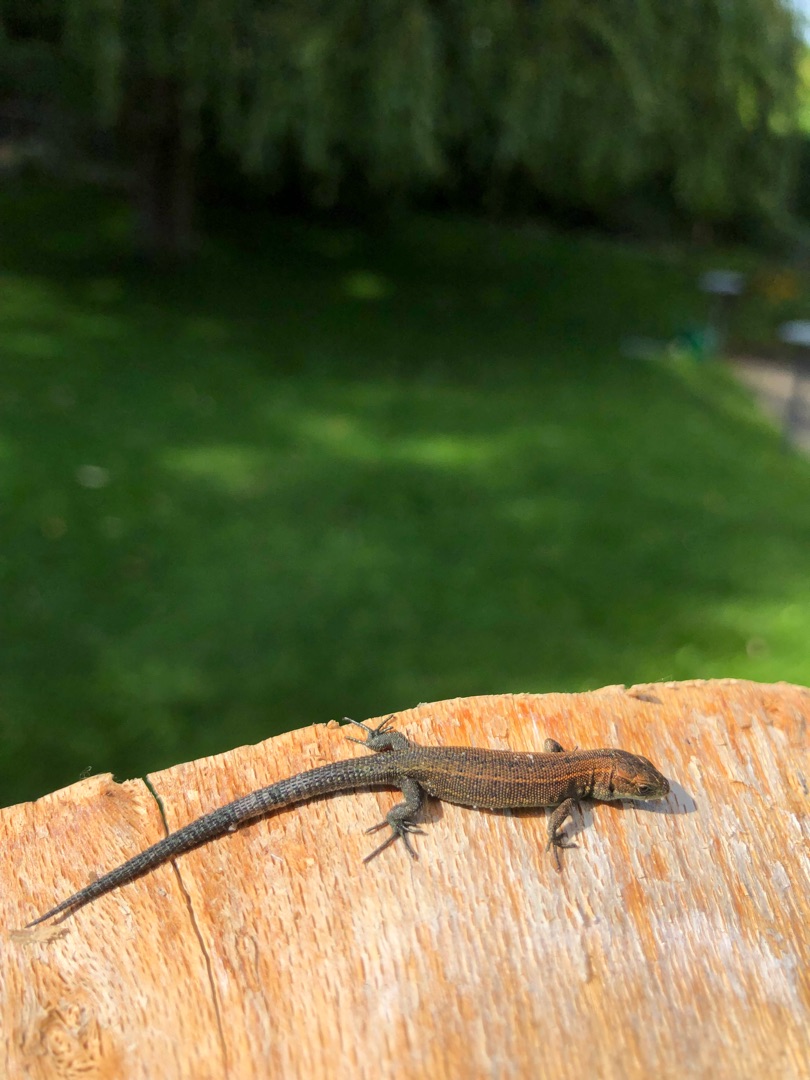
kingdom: Animalia
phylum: Chordata
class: Squamata
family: Lacertidae
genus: Zootoca
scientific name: Zootoca vivipara
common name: Skovfirben
